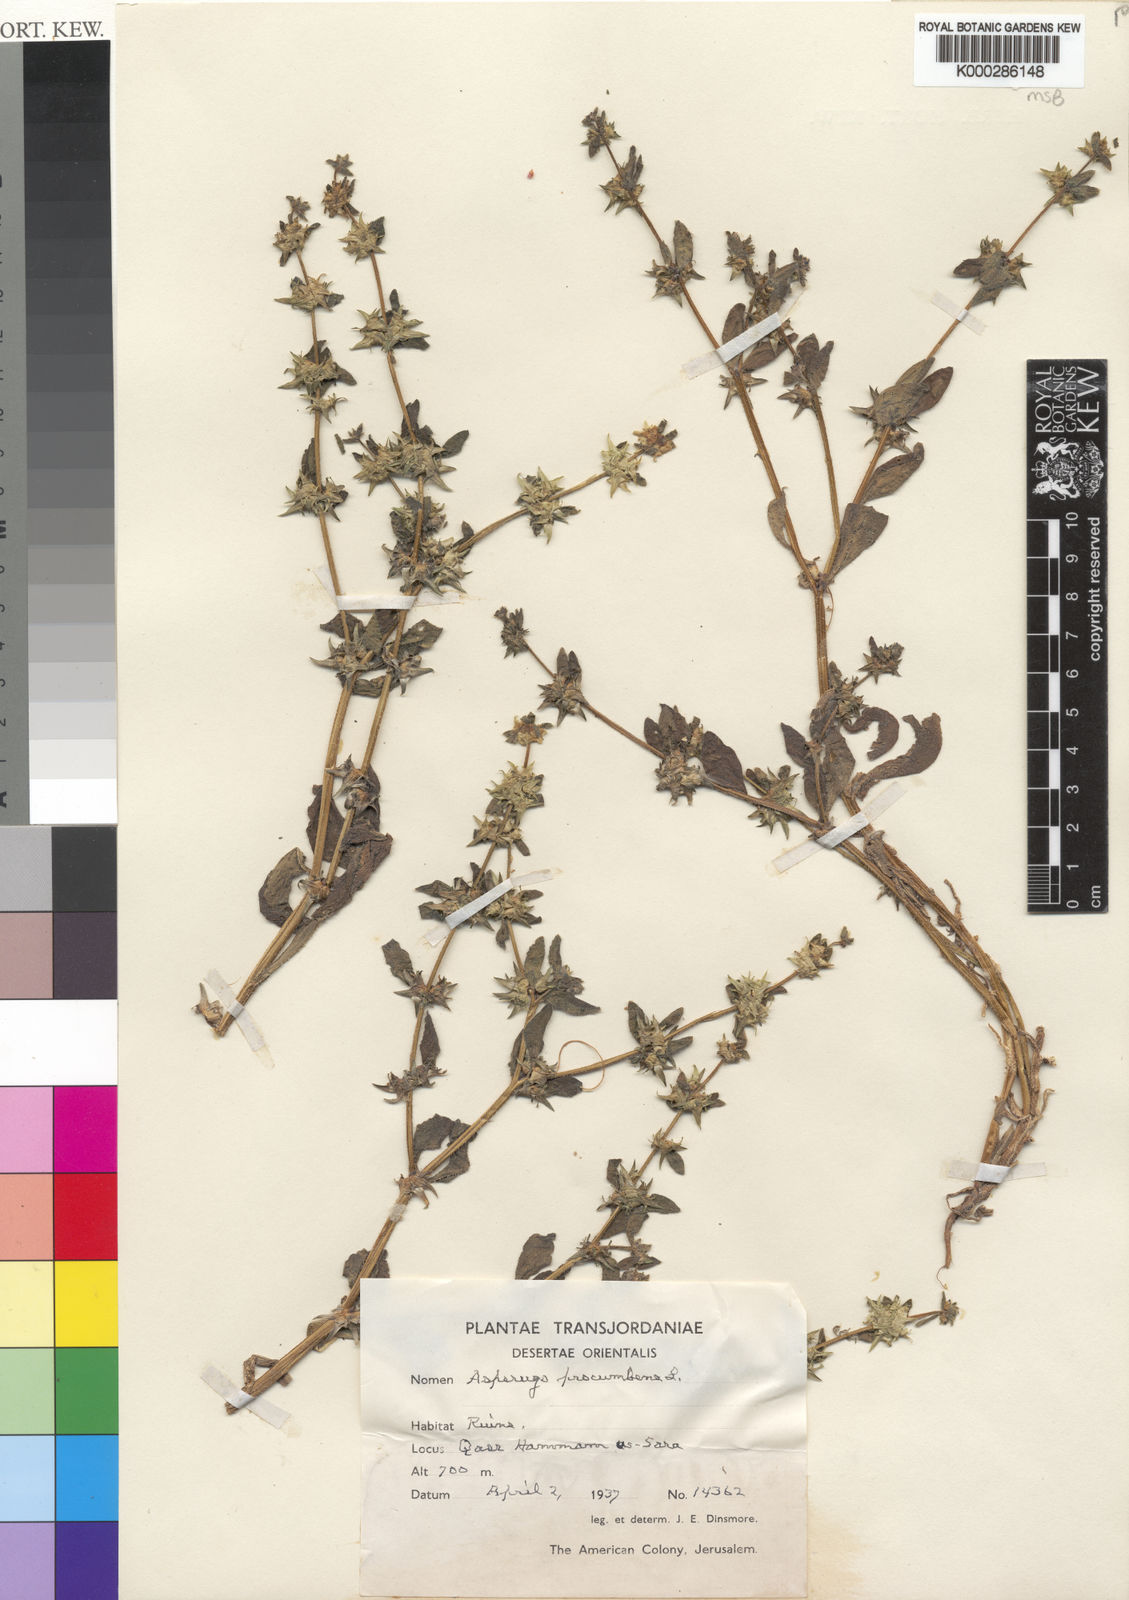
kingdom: Plantae
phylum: Tracheophyta
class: Magnoliopsida
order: Boraginales
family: Boraginaceae
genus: Asperugo
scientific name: Asperugo procumbens
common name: Madwort
